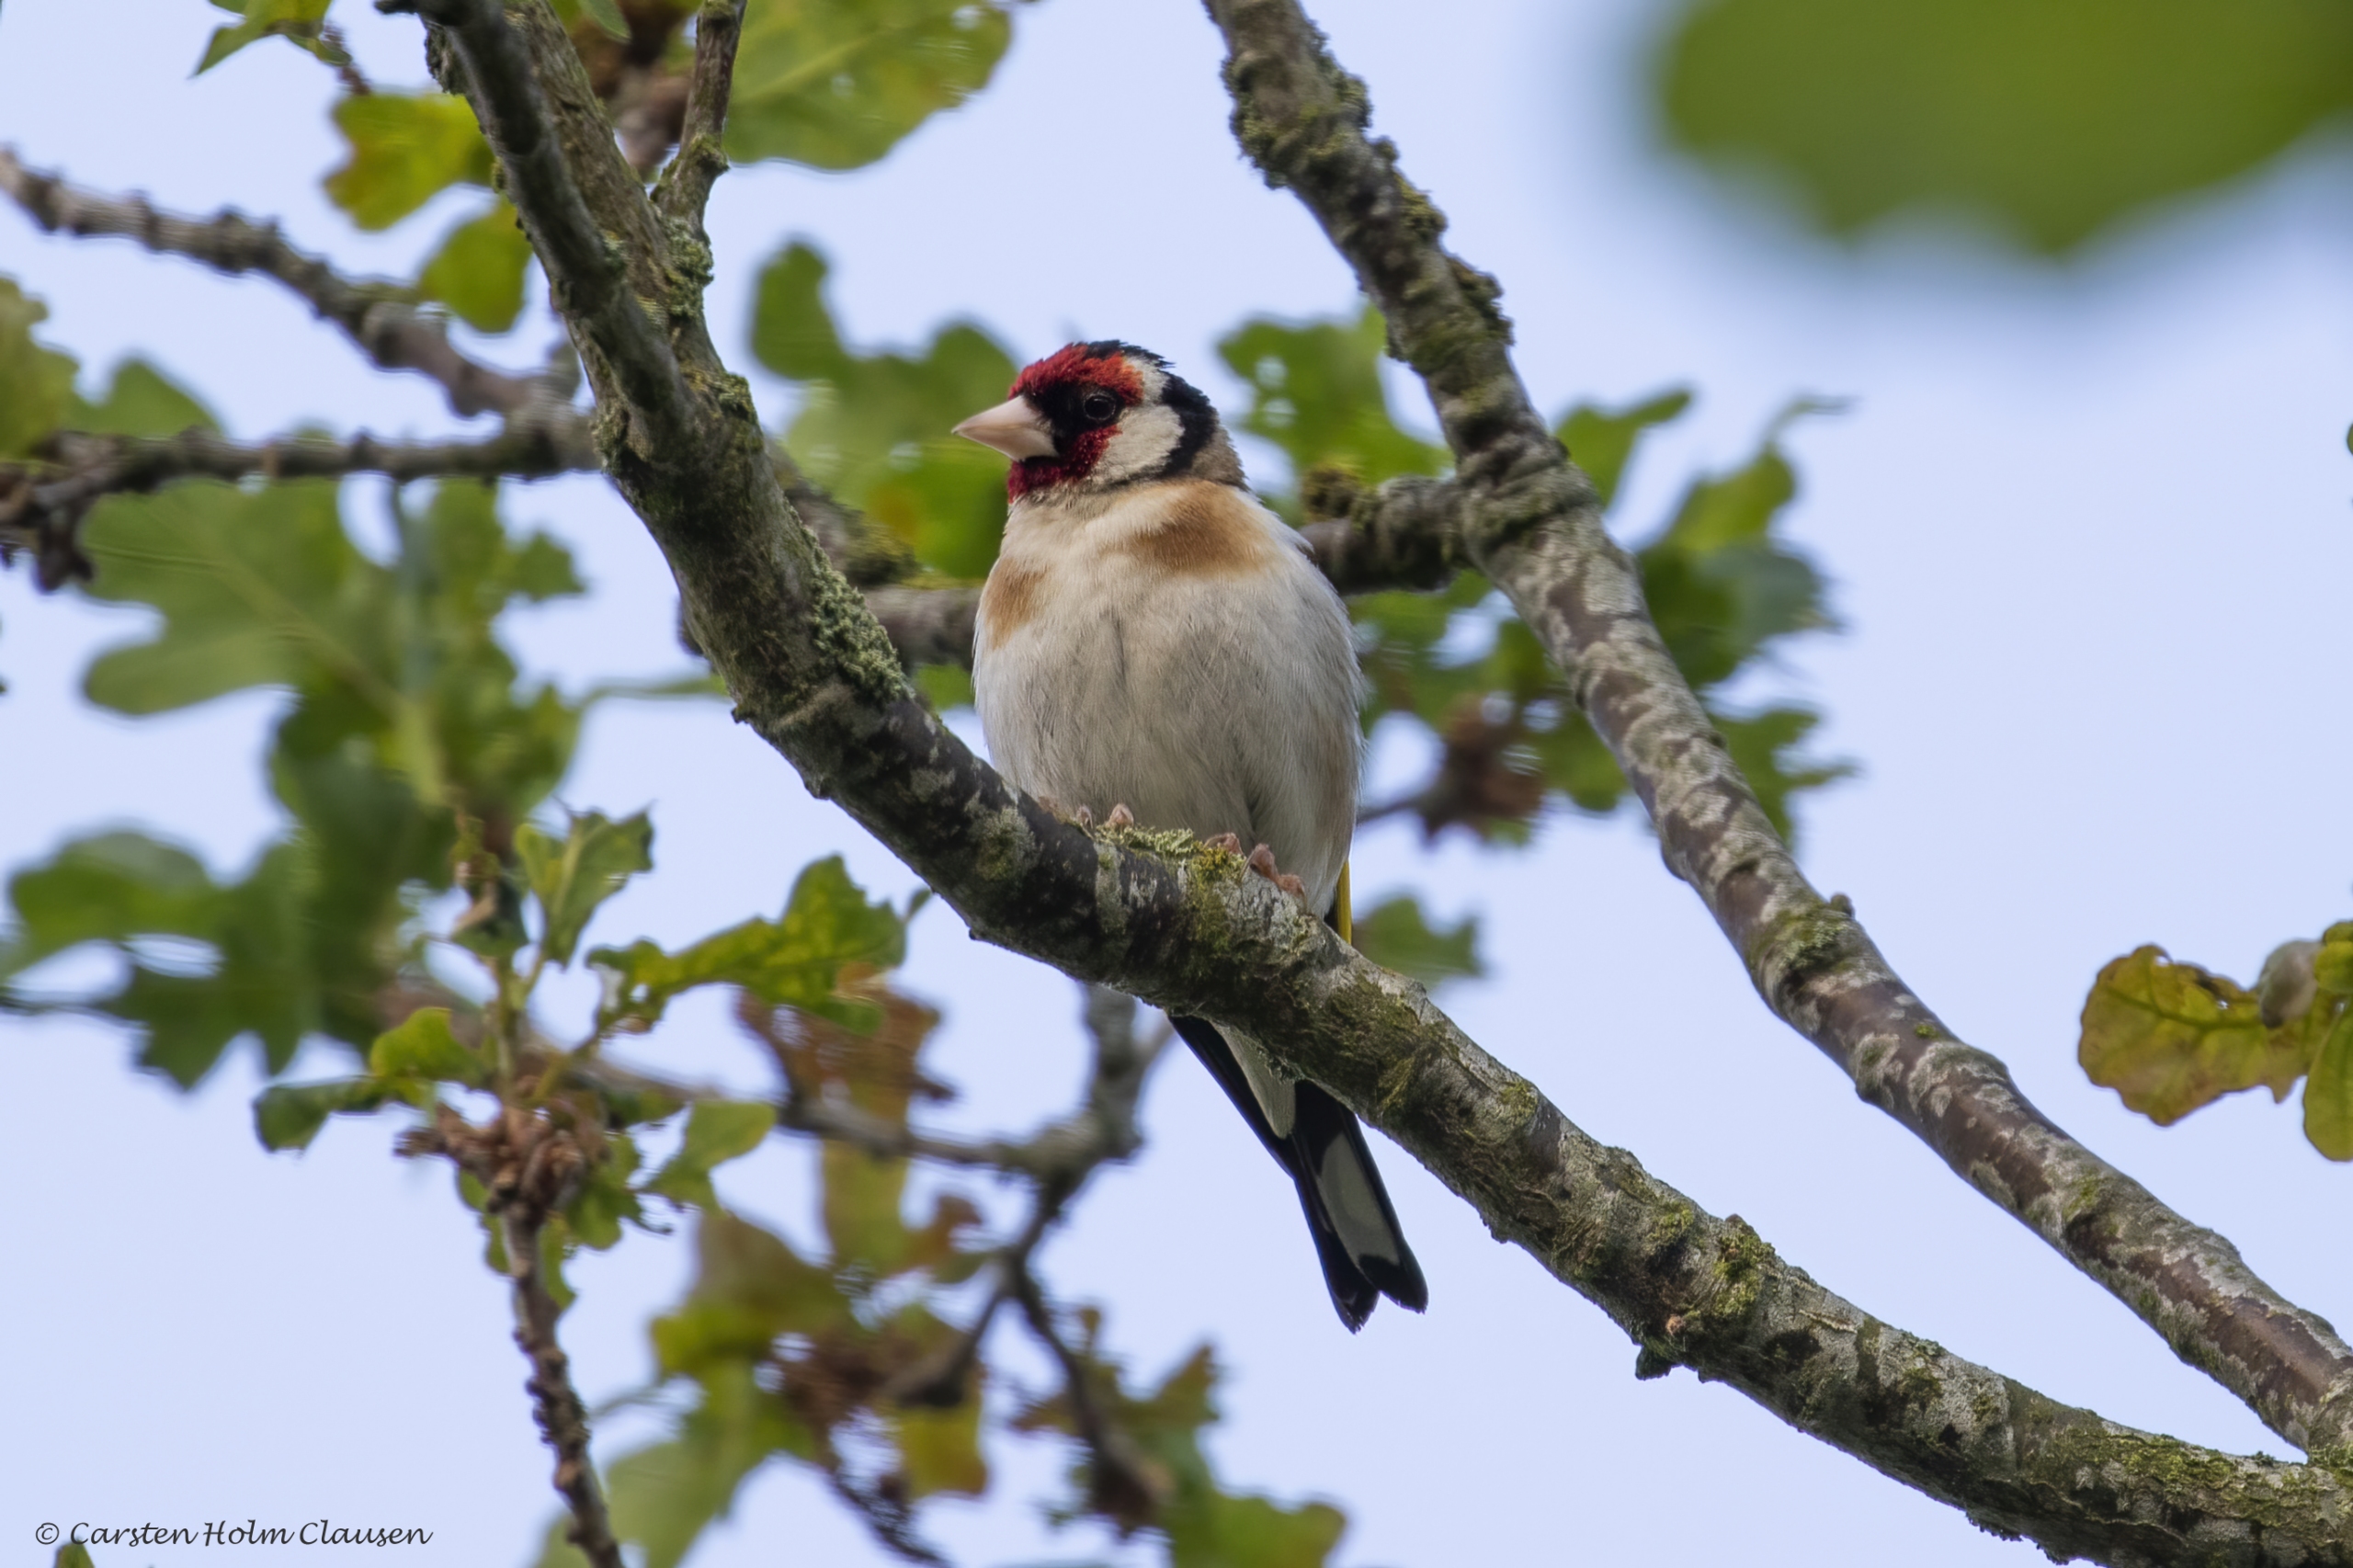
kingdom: Animalia
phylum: Chordata
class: Aves
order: Passeriformes
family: Fringillidae
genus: Carduelis
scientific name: Carduelis carduelis
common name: Stillits
